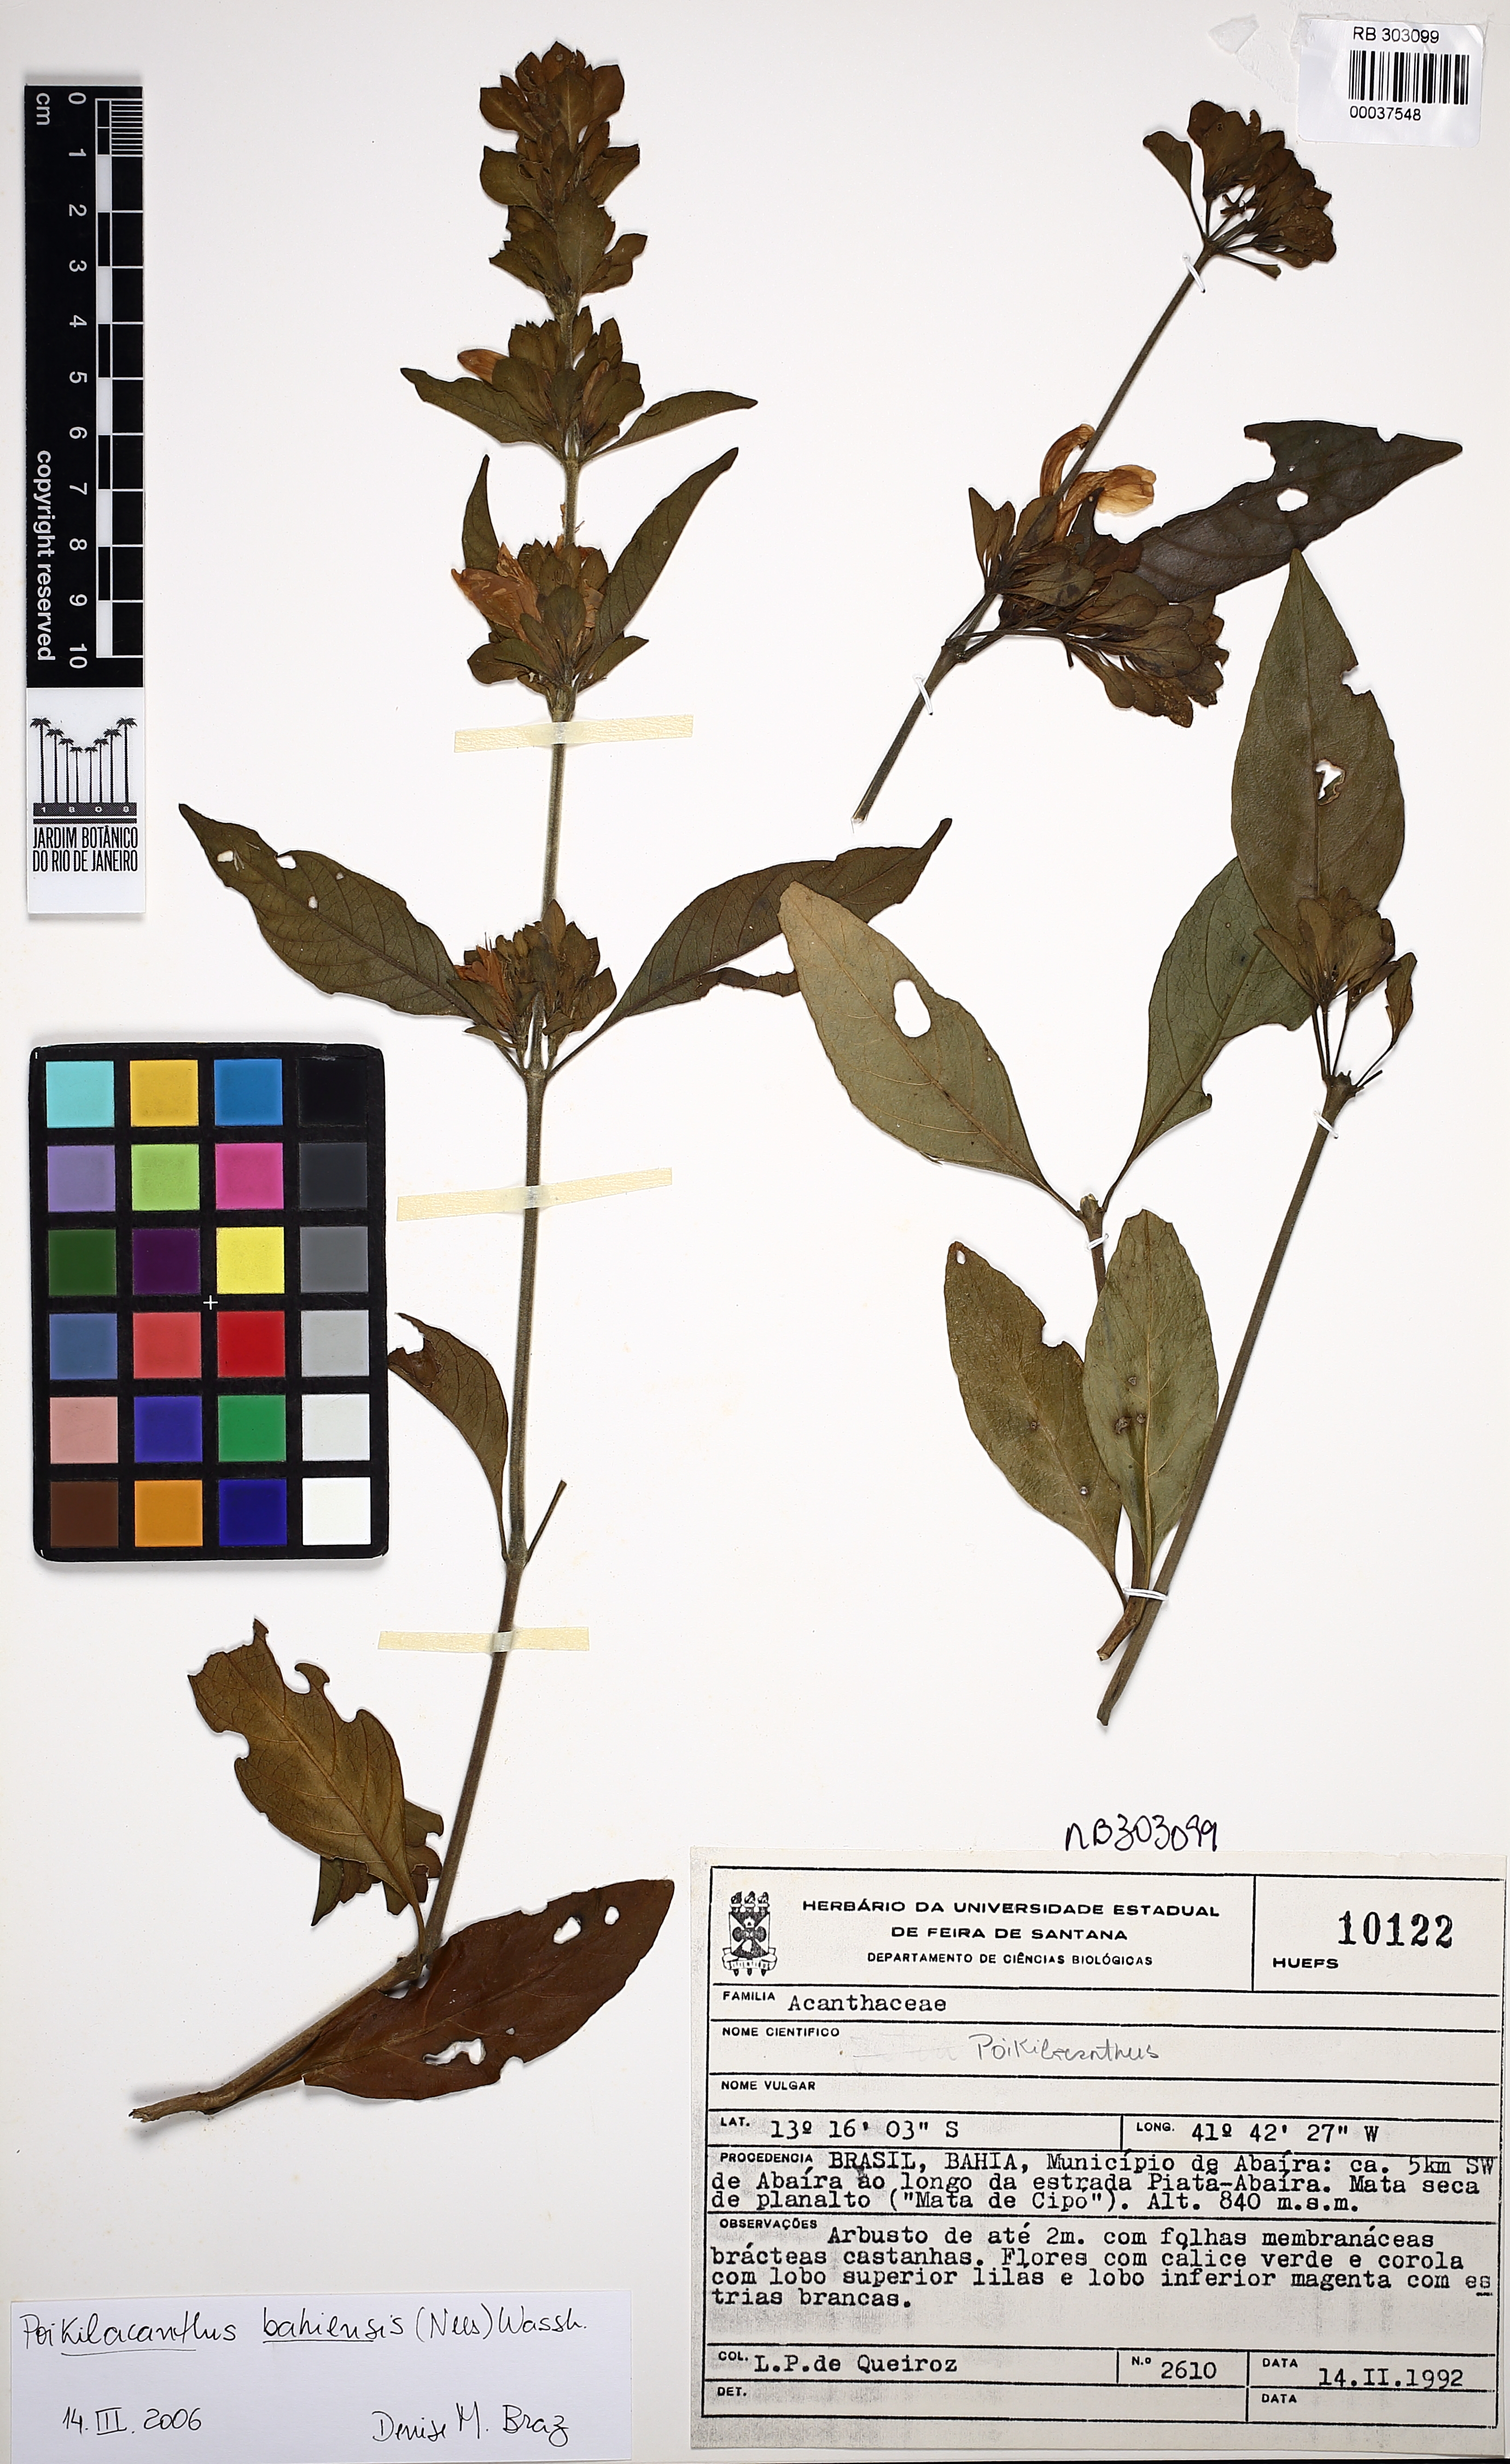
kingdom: Plantae
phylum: Tracheophyta
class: Magnoliopsida
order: Lamiales
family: Acanthaceae
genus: Poikilacanthus
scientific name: Poikilacanthus bahiensis
